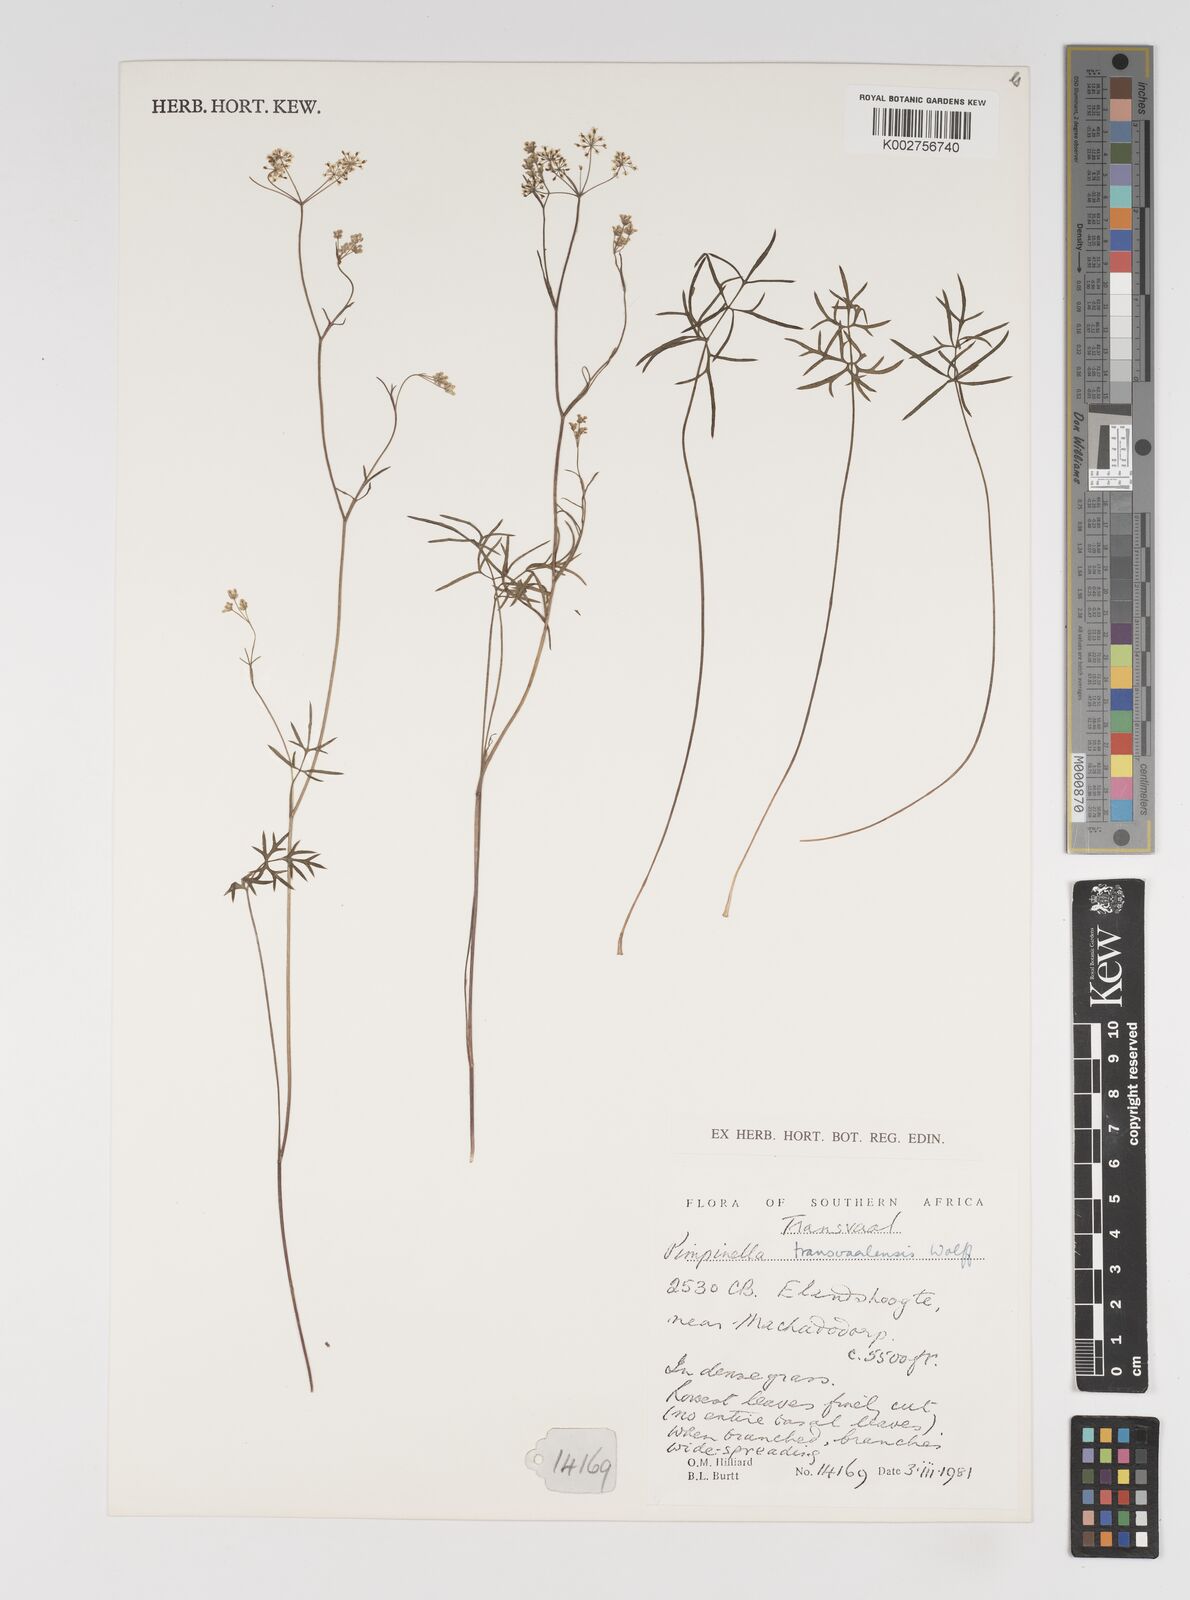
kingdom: Plantae
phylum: Tracheophyta
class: Magnoliopsida
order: Apiales
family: Apiaceae
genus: Pimpinella
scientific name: Pimpinella transvaalensis
